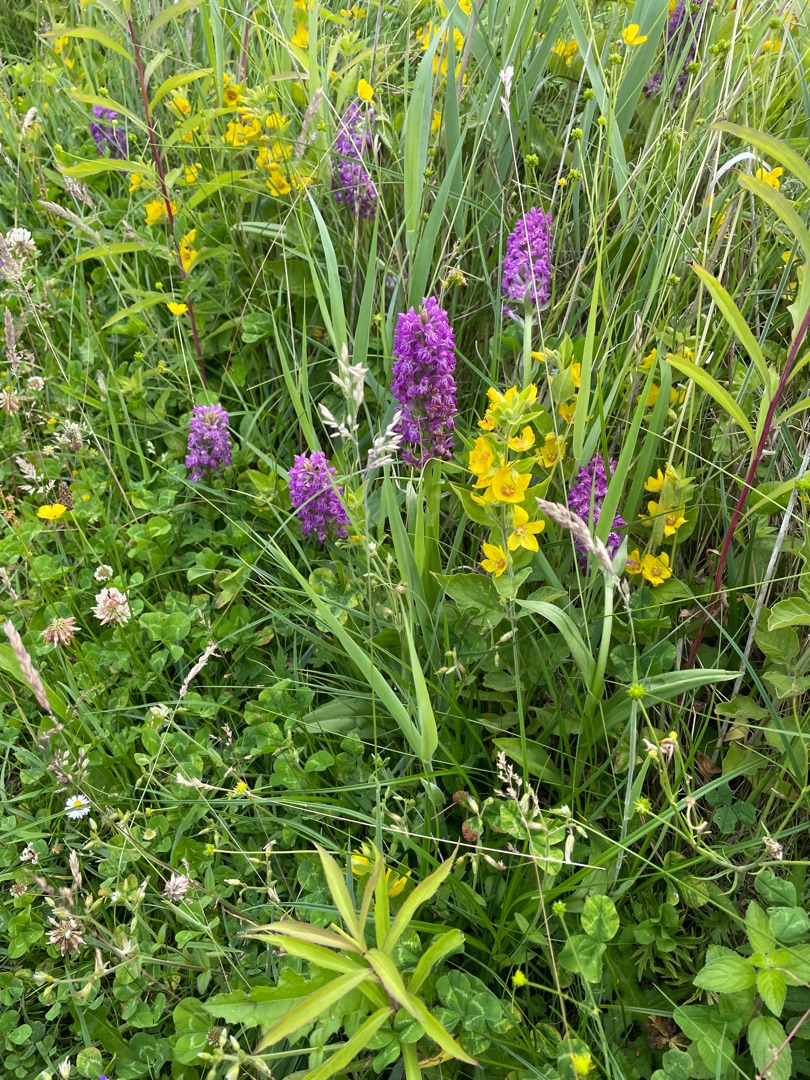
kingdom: Plantae
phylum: Tracheophyta
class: Liliopsida
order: Asparagales
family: Orchidaceae
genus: Dactylorhiza
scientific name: Dactylorhiza majalis
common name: Purpur-gøgeurt
